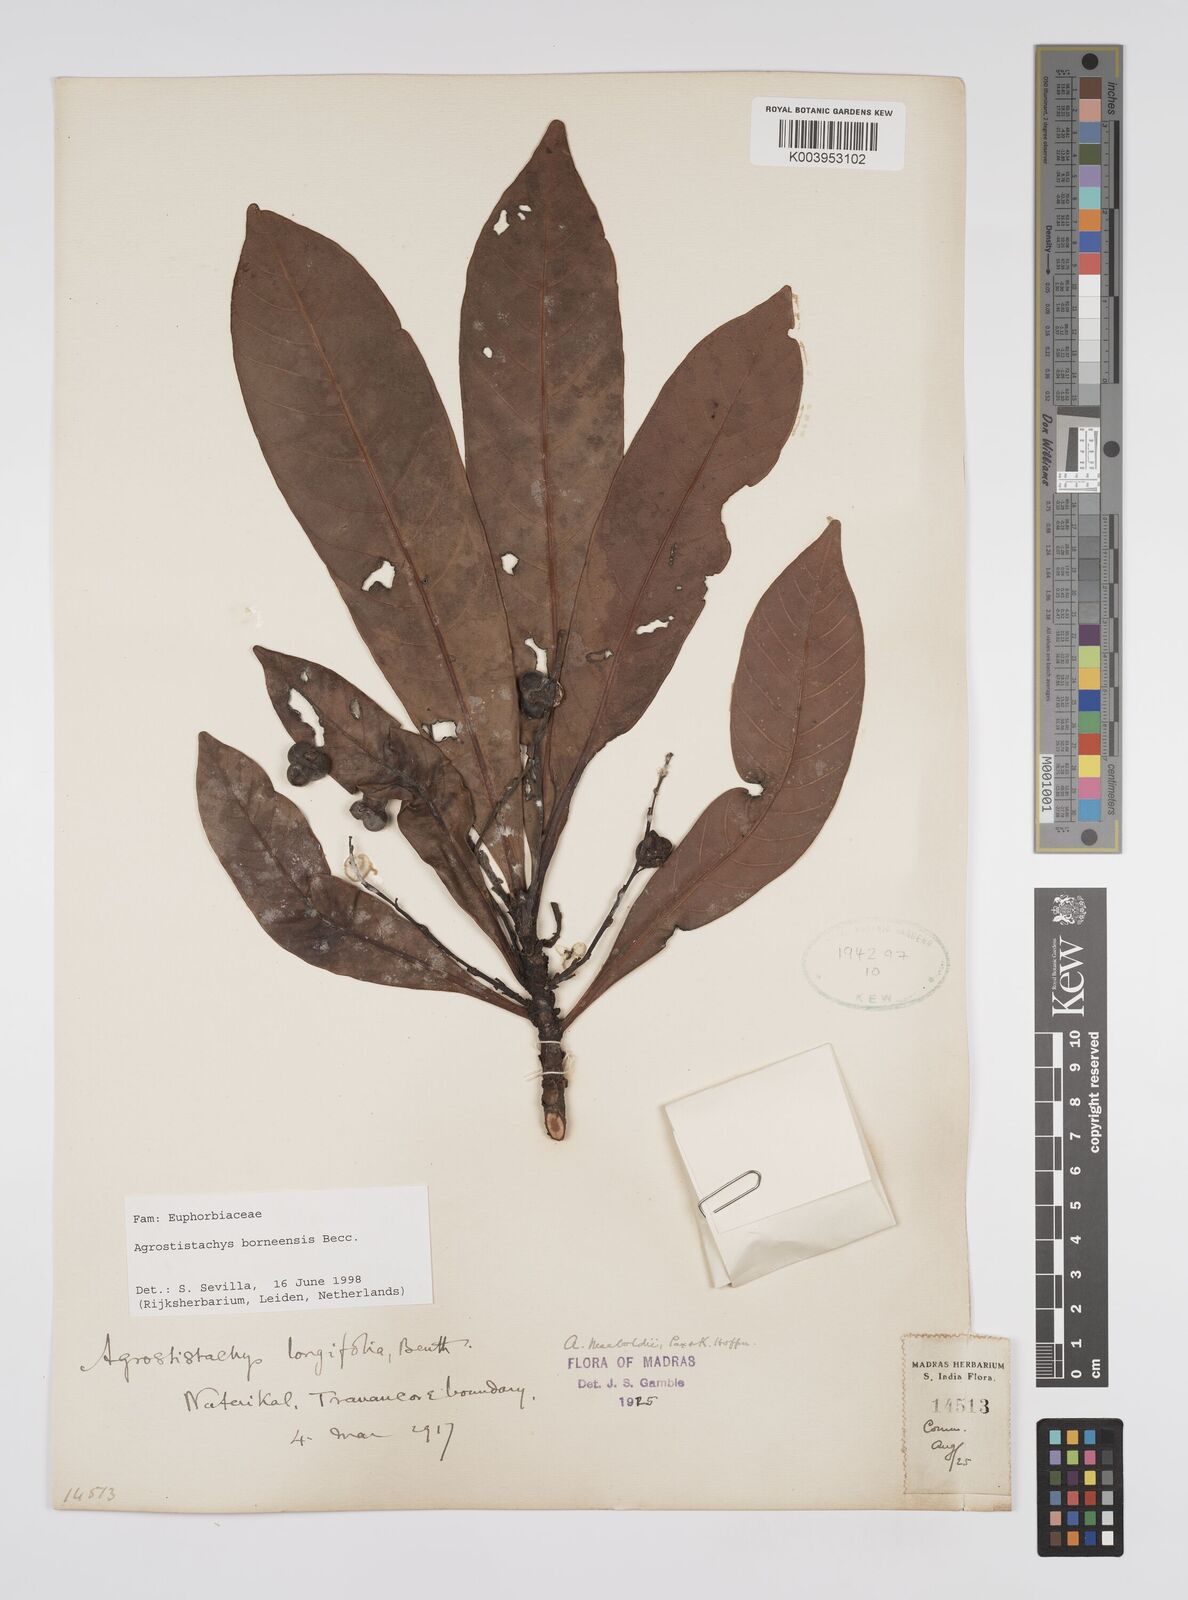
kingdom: Plantae
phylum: Tracheophyta
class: Magnoliopsida
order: Malpighiales
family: Euphorbiaceae
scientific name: Euphorbiaceae
